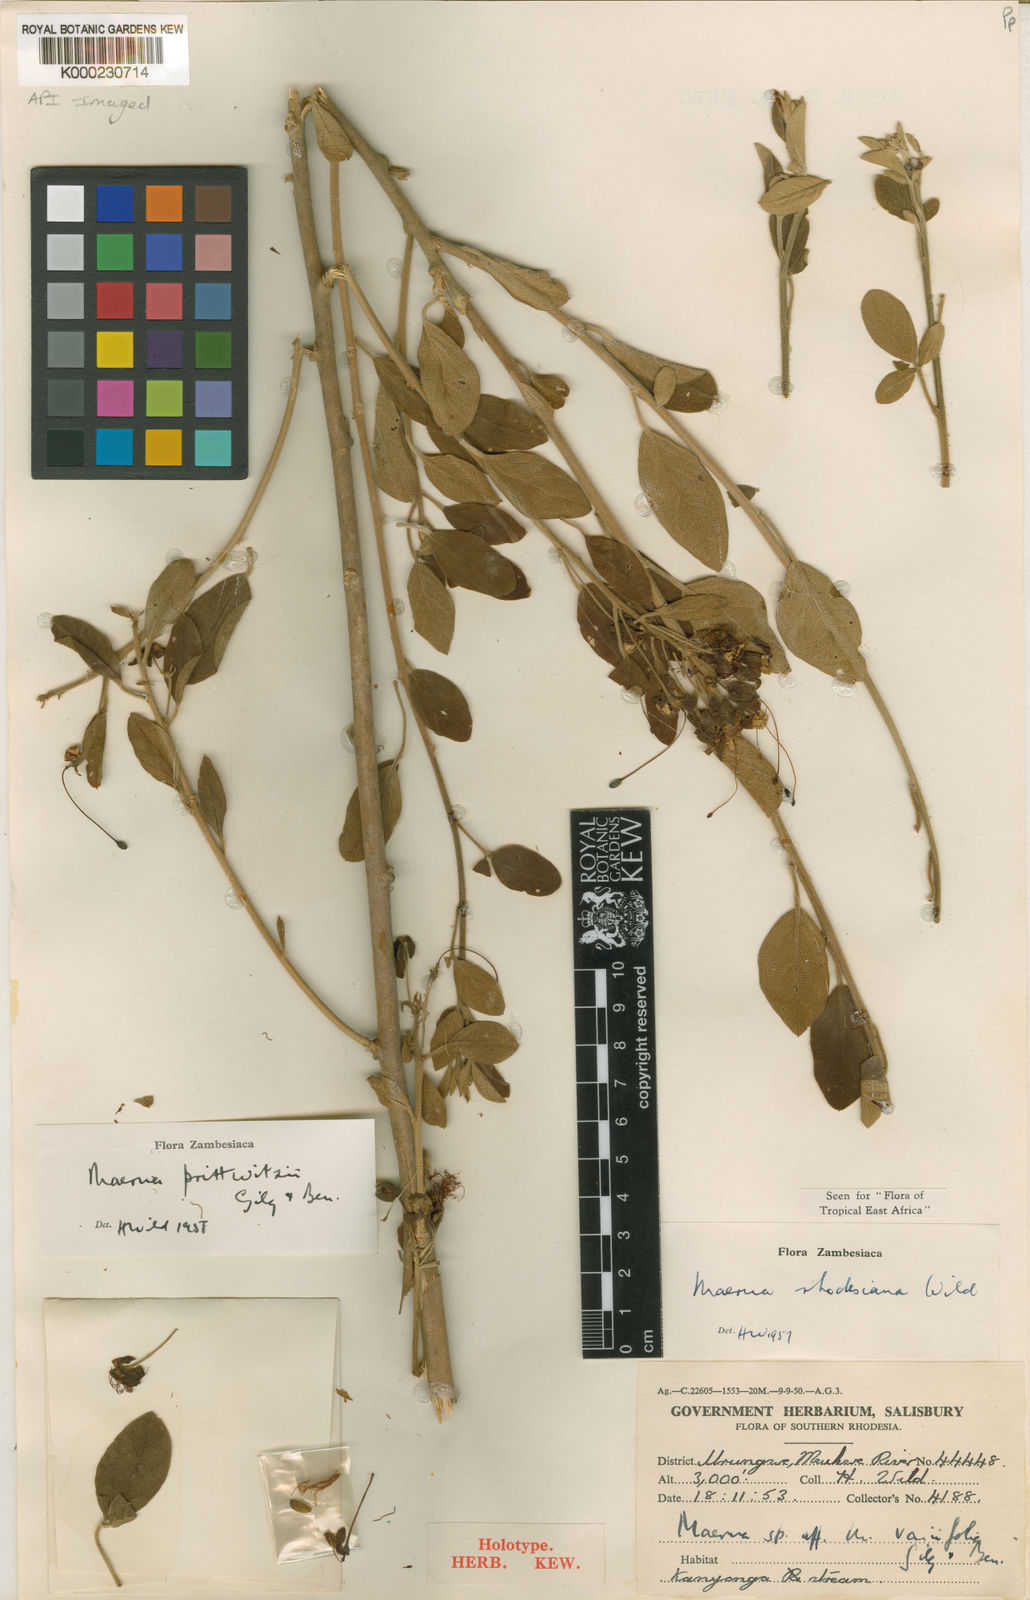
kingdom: Plantae
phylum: Tracheophyta
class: Magnoliopsida
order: Brassicales
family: Capparaceae
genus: Maerua
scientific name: Maerua prittwitzii
